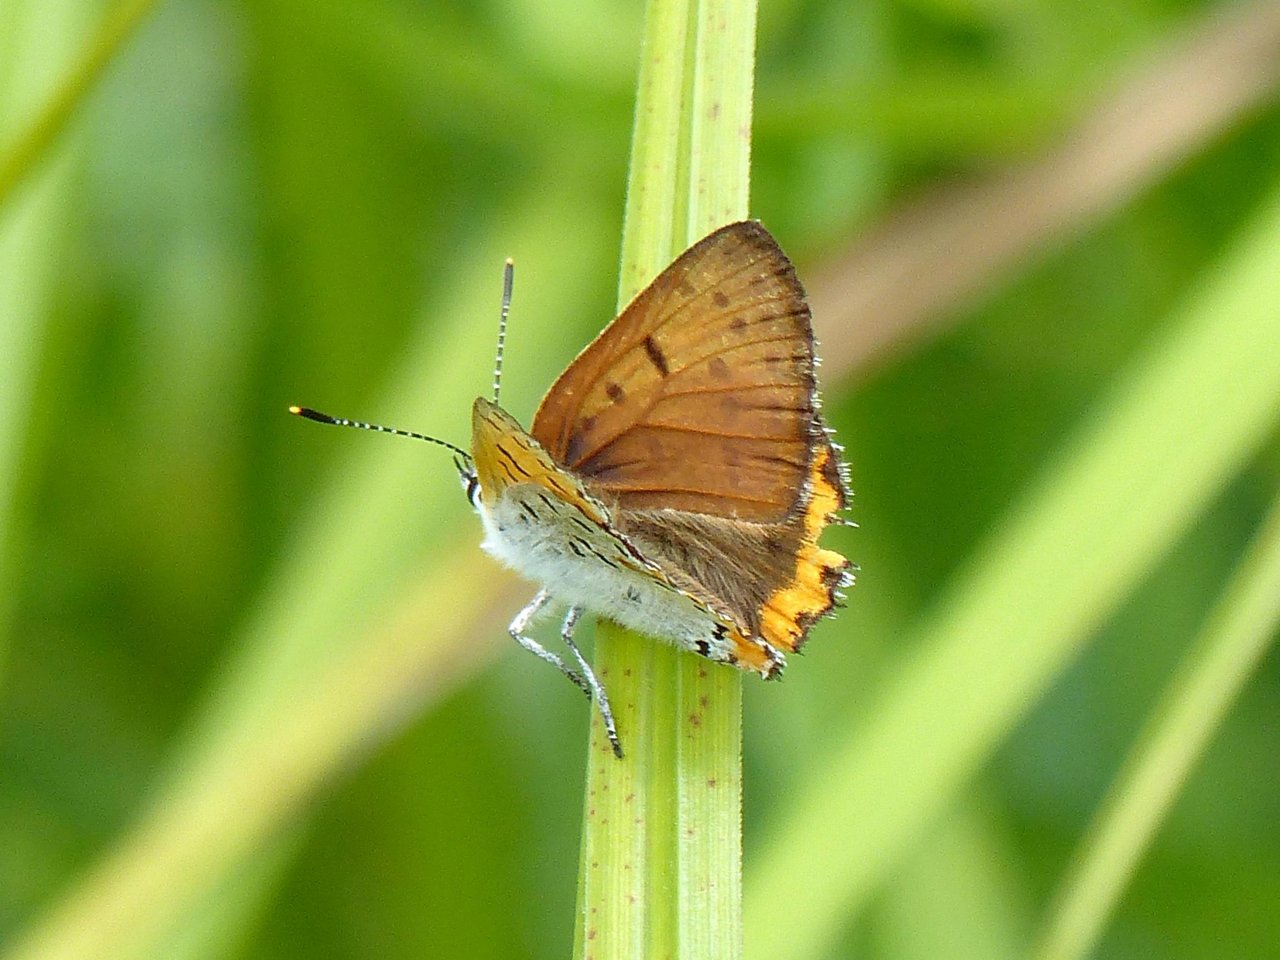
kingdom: Animalia
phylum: Arthropoda
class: Insecta
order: Lepidoptera
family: Sesiidae
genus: Sesia
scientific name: Sesia Lycaena hyllus
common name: Bronze Copper
